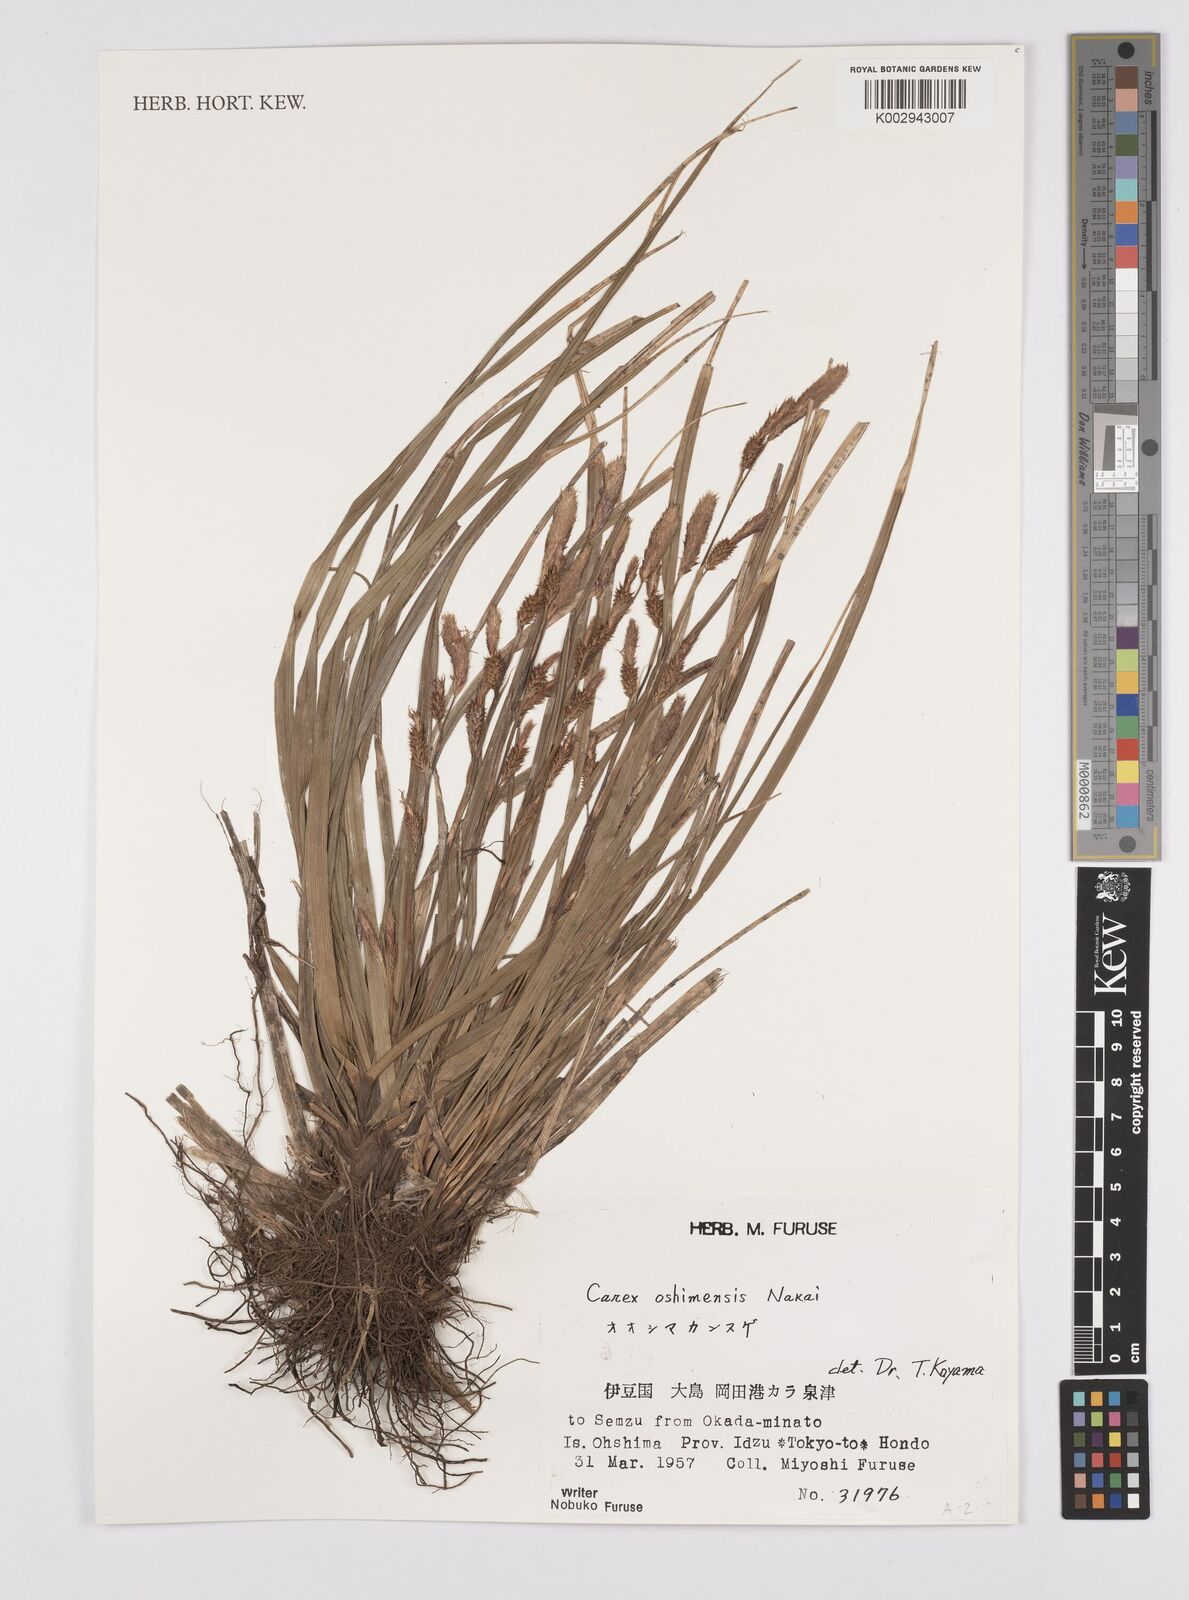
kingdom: Plantae
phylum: Tracheophyta
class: Liliopsida
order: Poales
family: Cyperaceae
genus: Carex
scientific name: Carex oshimensis
